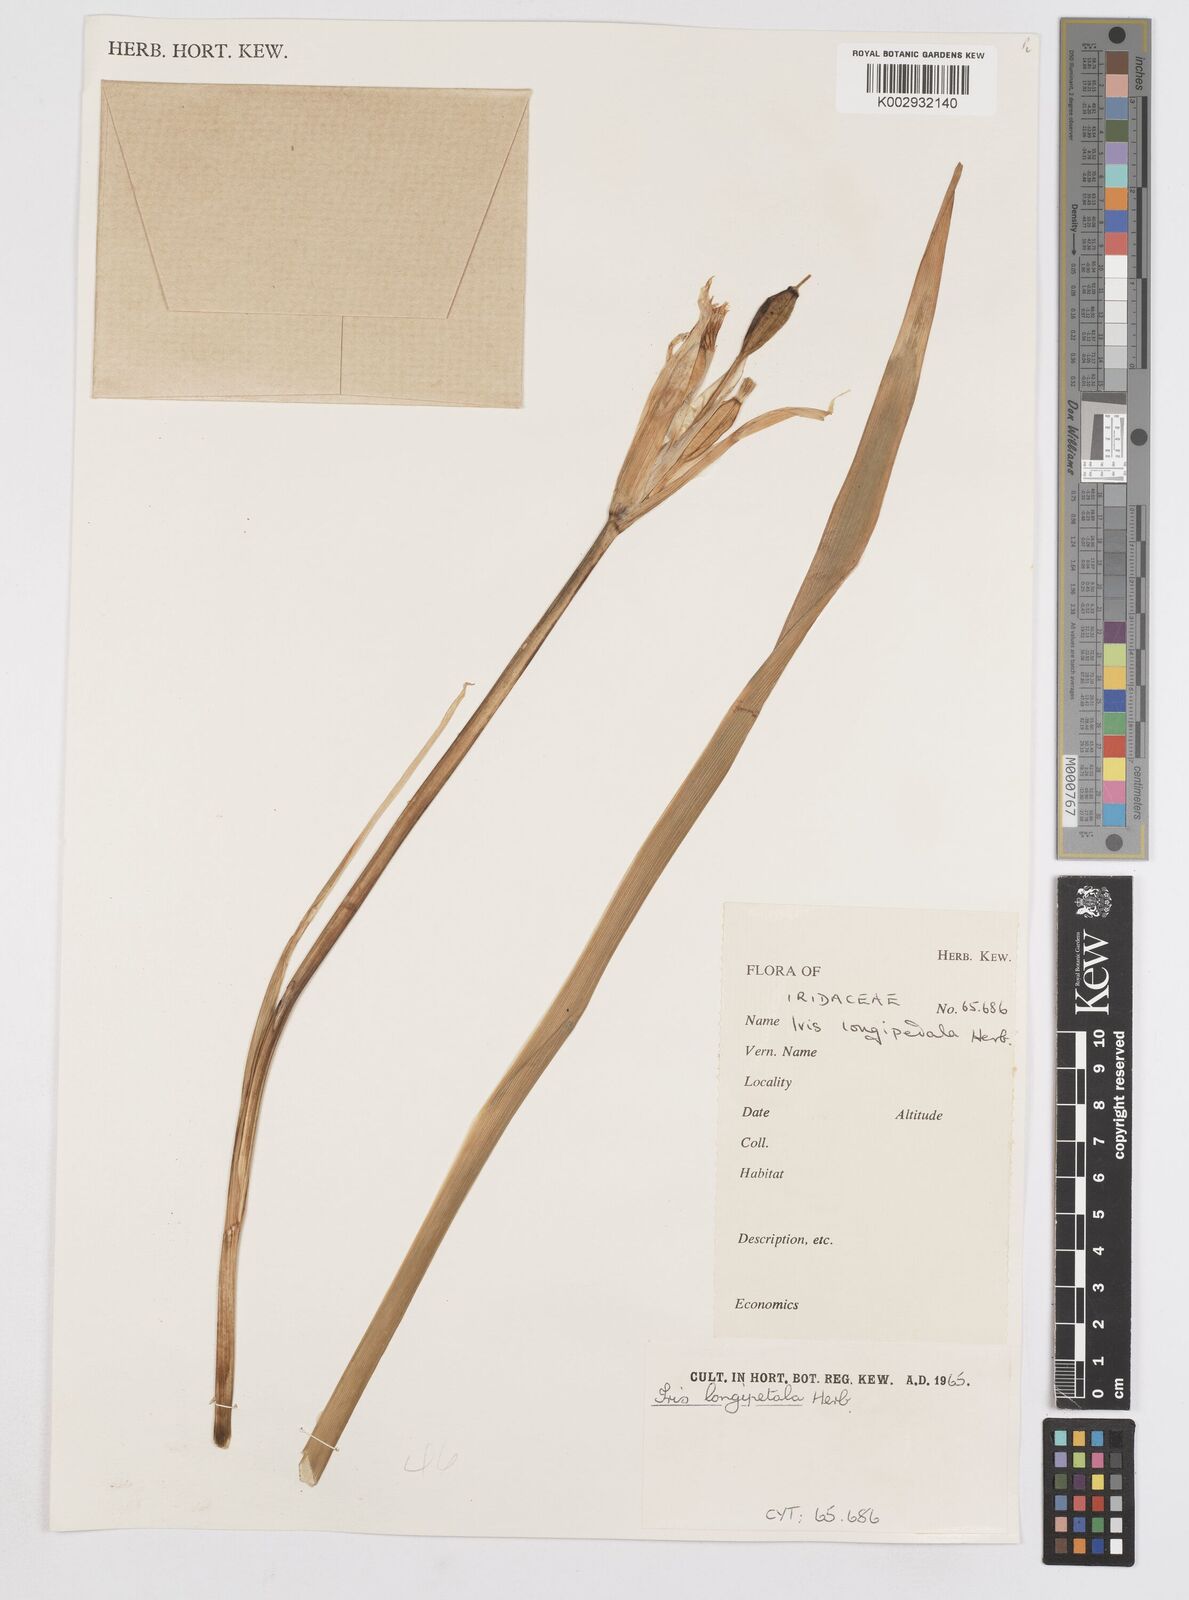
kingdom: Plantae
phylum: Tracheophyta
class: Liliopsida
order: Asparagales
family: Iridaceae
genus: Iris
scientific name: Iris longipetala
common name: Long-petal iris
